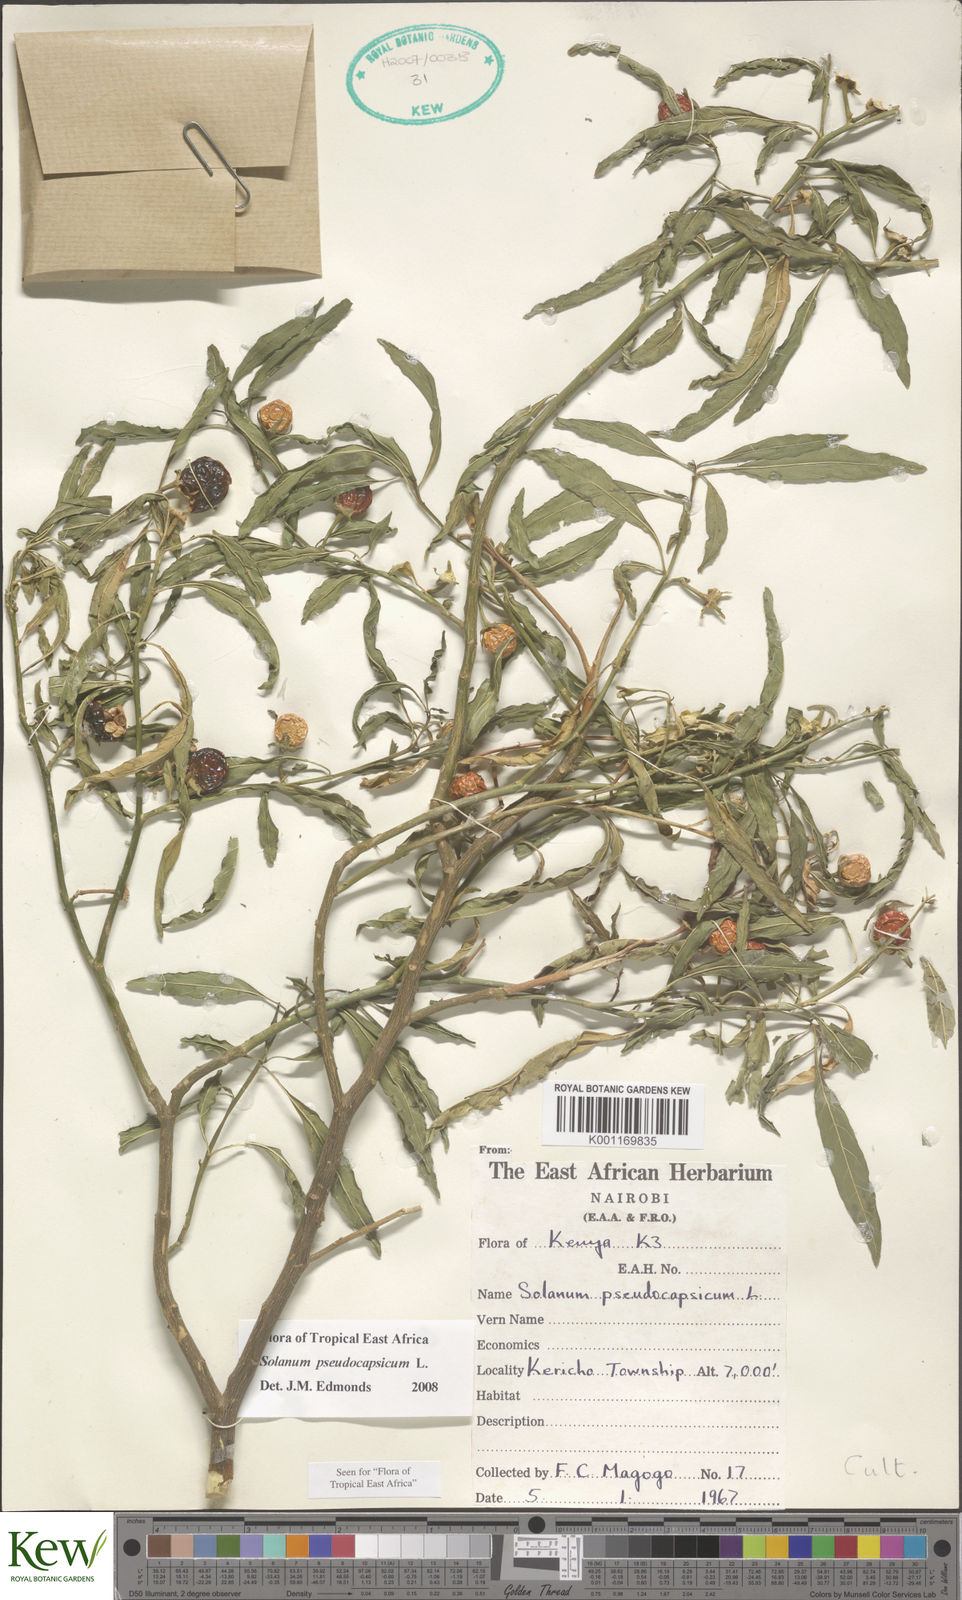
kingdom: Plantae
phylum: Tracheophyta
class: Magnoliopsida
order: Solanales
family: Solanaceae
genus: Solanum
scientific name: Solanum
